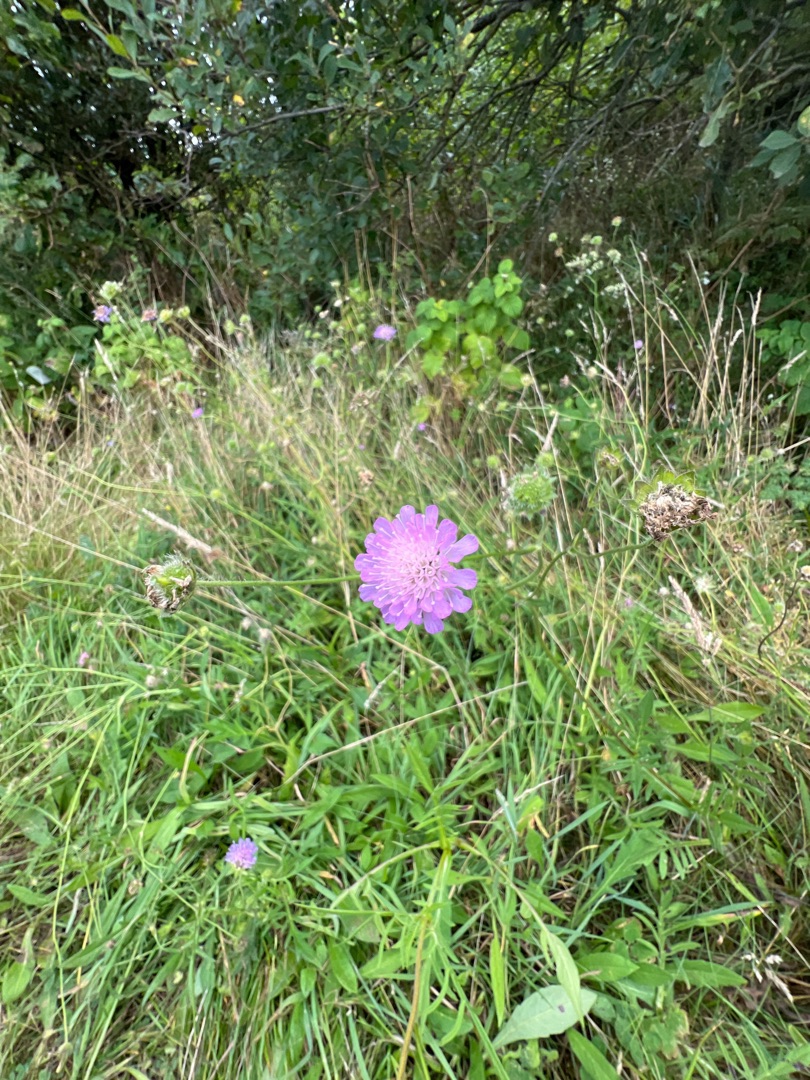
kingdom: Plantae
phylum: Tracheophyta
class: Magnoliopsida
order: Dipsacales
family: Caprifoliaceae
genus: Knautia
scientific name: Knautia arvensis
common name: Blåhat
